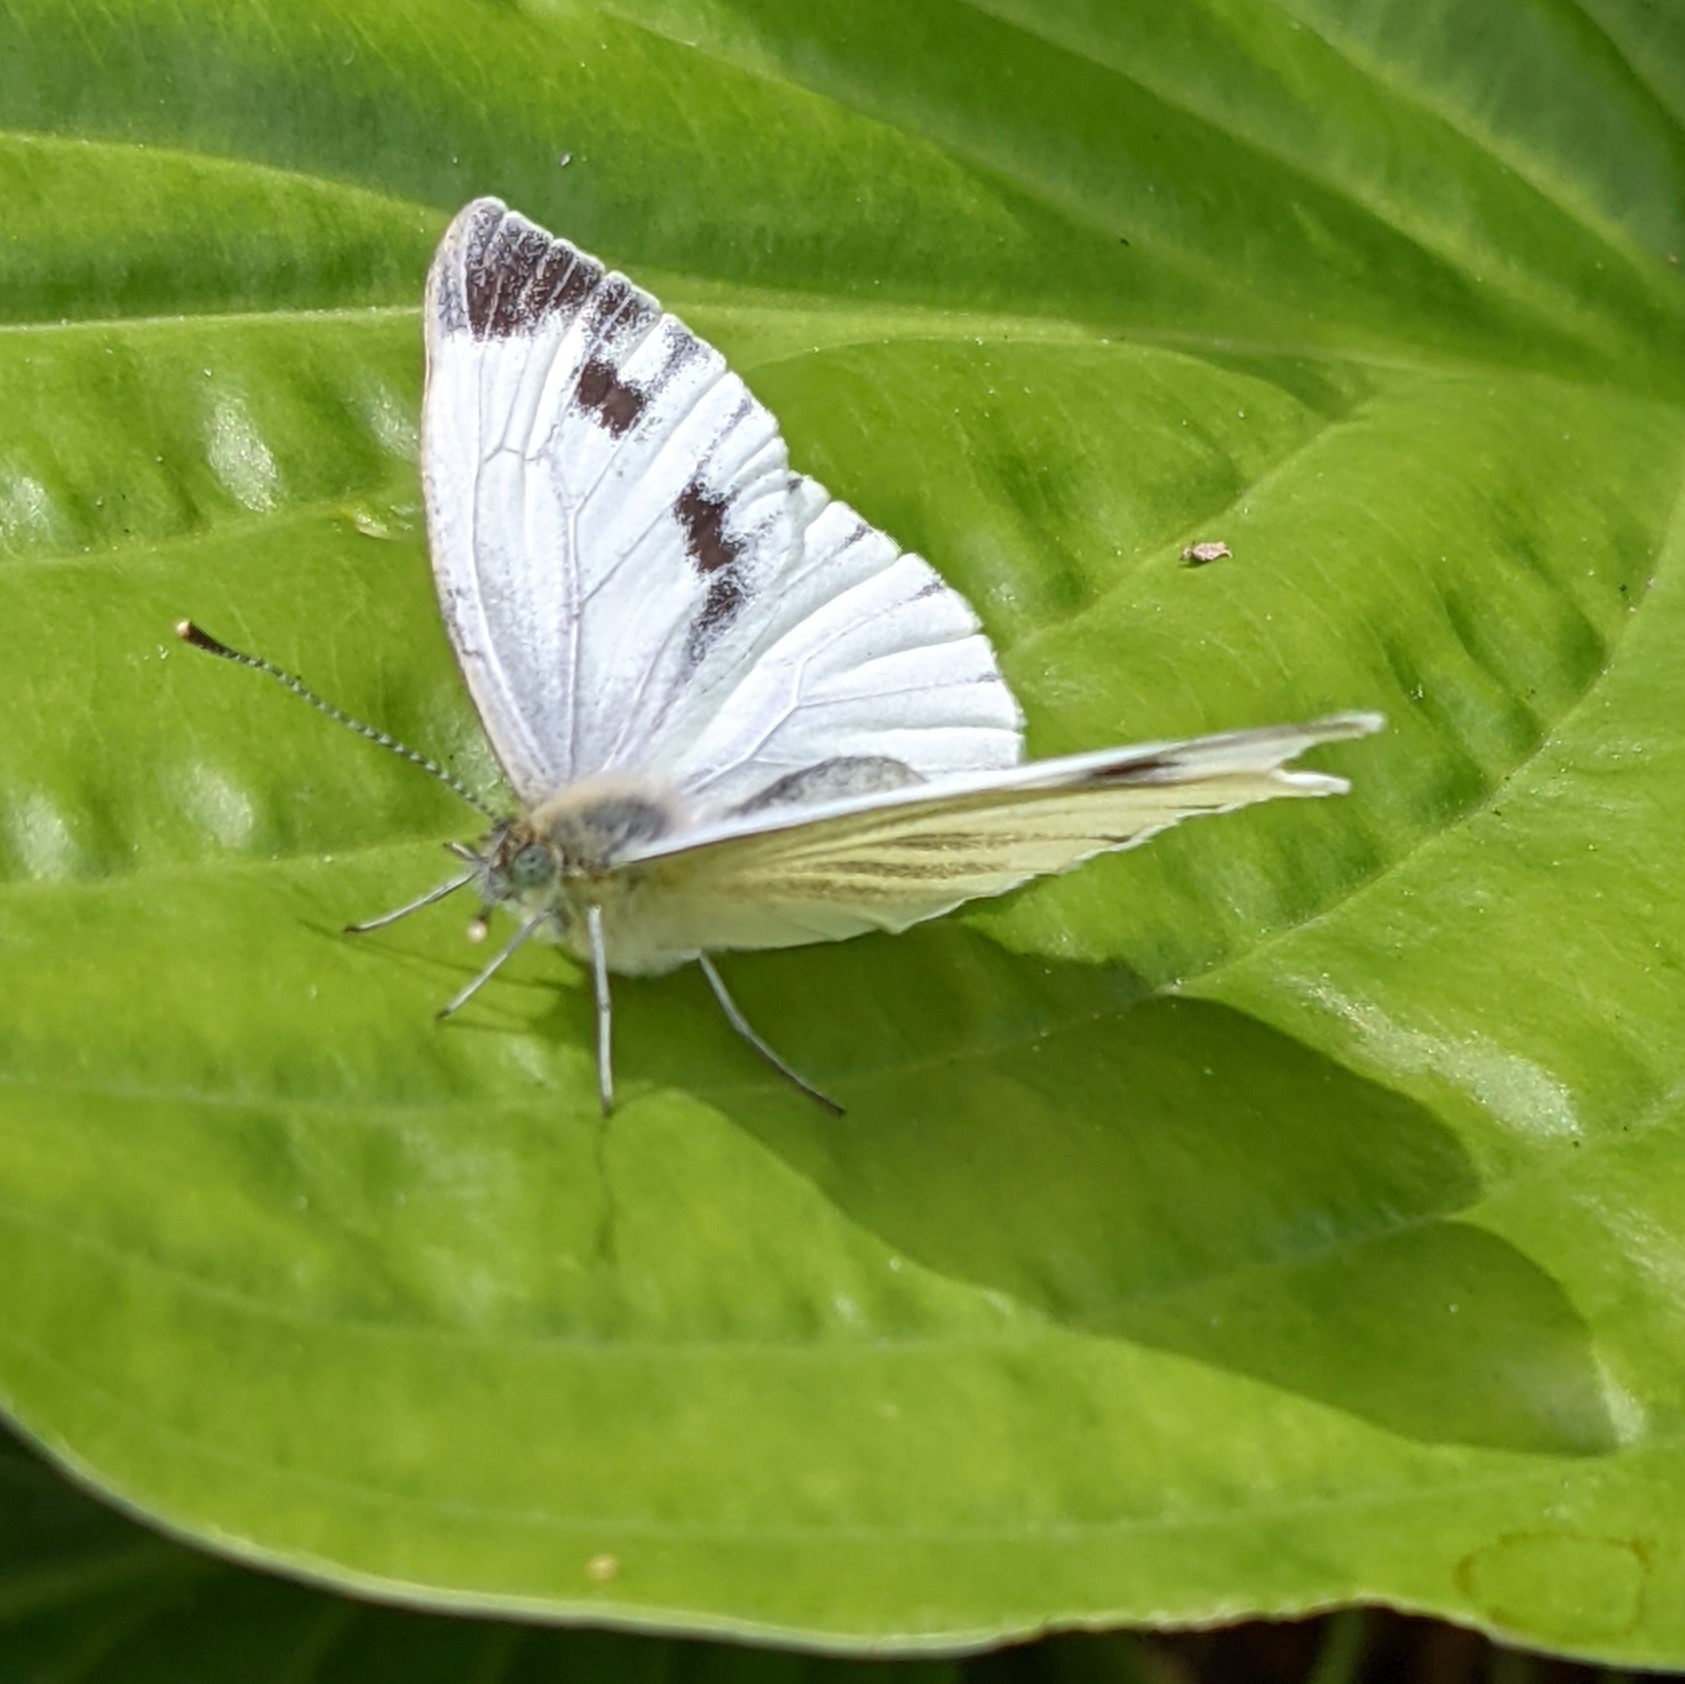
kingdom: Animalia
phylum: Arthropoda
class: Insecta
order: Lepidoptera
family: Pieridae
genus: Pieris
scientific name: Pieris napi
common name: Grønåret kålsommerfugl
